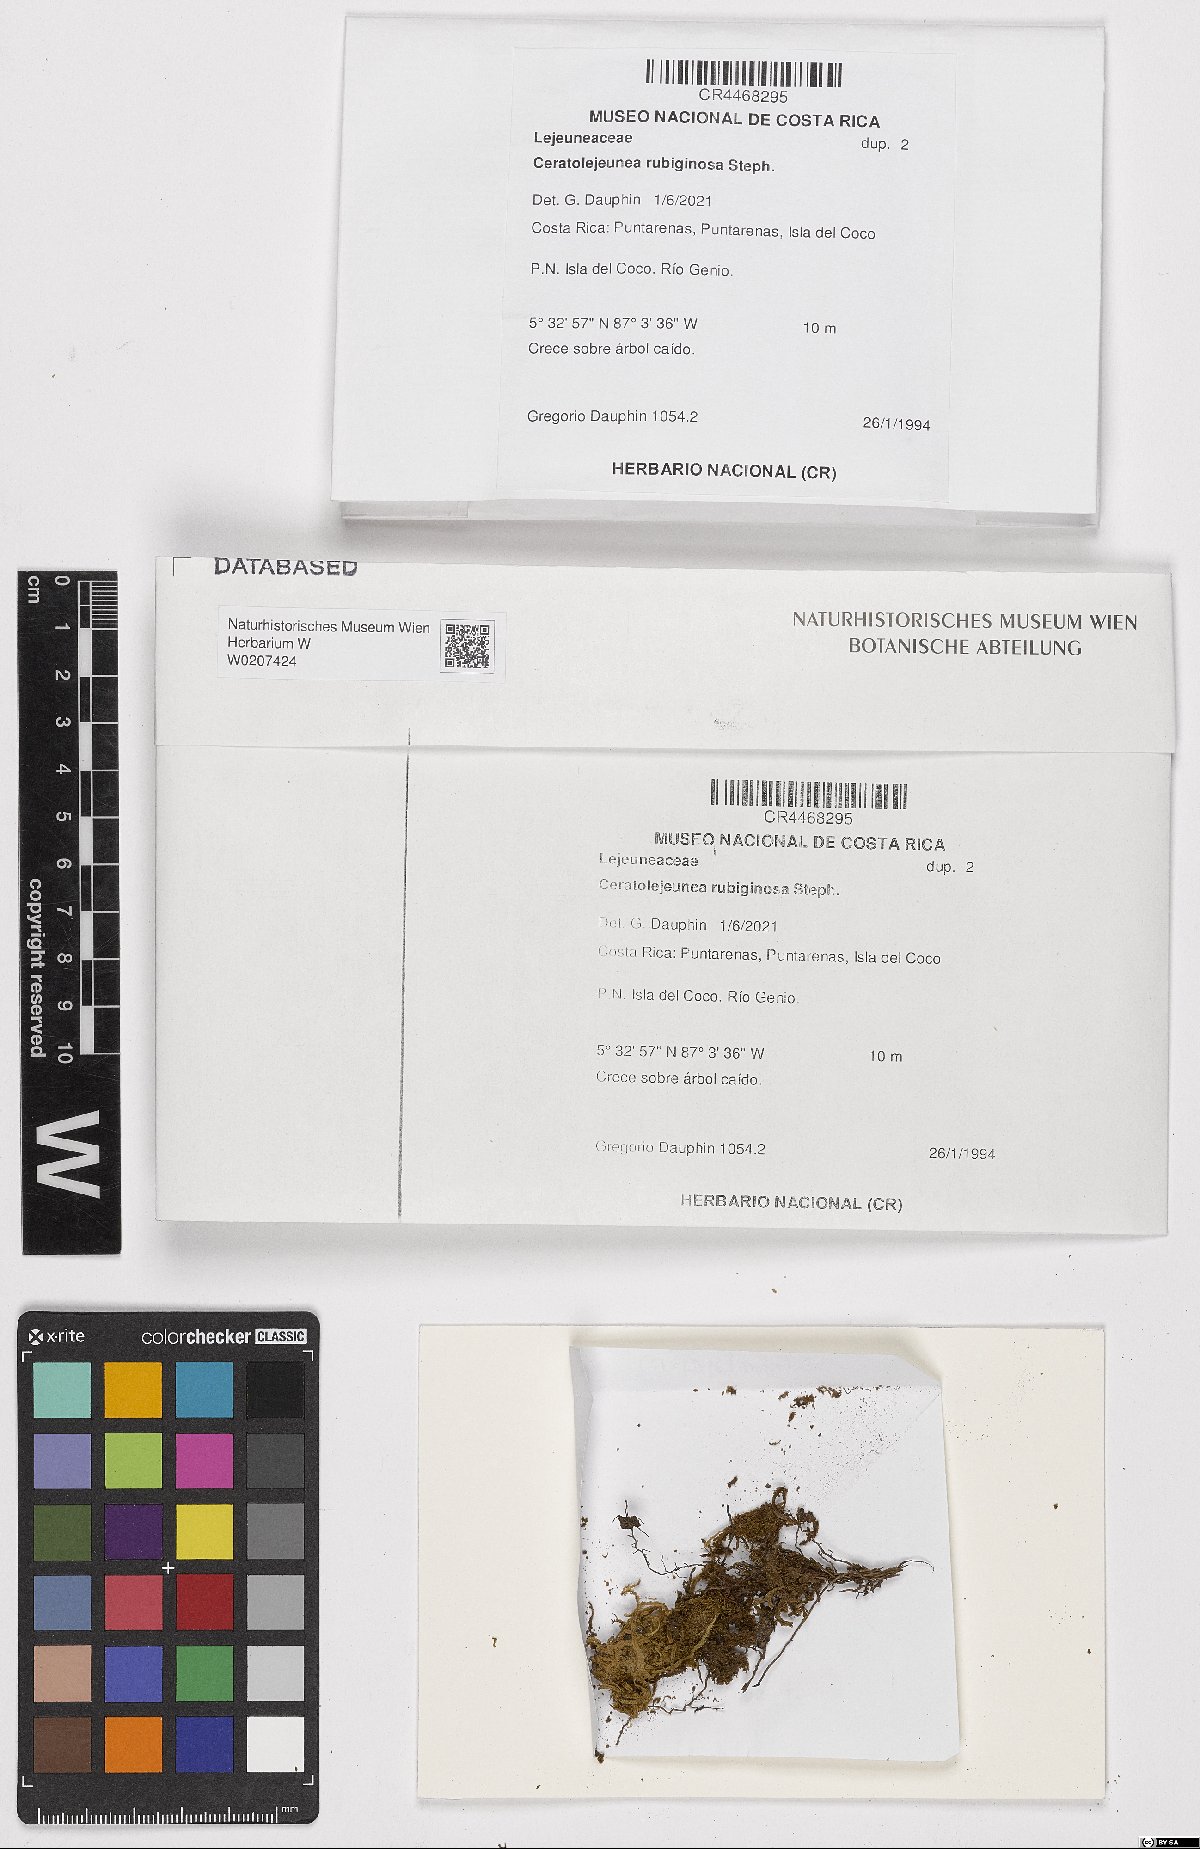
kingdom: Plantae
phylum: Marchantiophyta
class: Jungermanniopsida
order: Porellales
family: Lejeuneaceae
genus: Ceratolejeunea
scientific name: Ceratolejeunea rubiginosa
